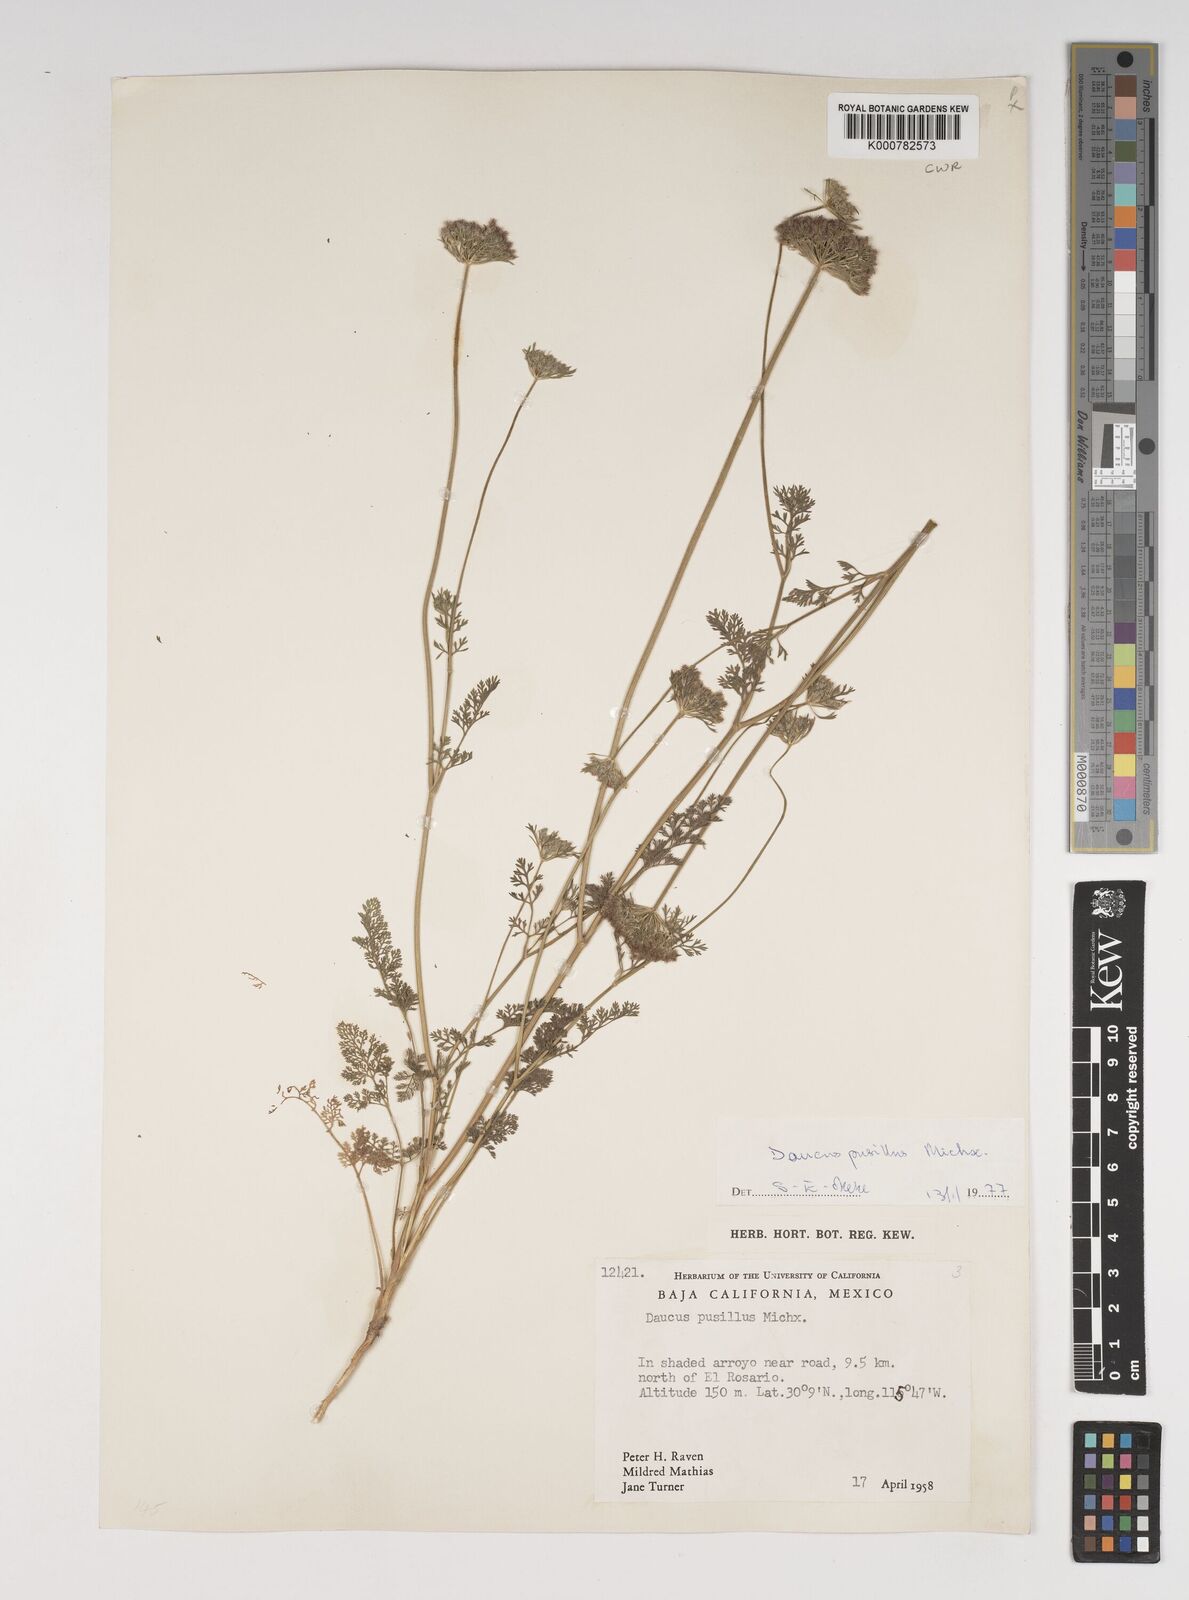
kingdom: Plantae
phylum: Tracheophyta
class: Magnoliopsida
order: Apiales
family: Apiaceae
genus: Daucus
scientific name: Daucus pusillus
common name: Southwest wild carrot
